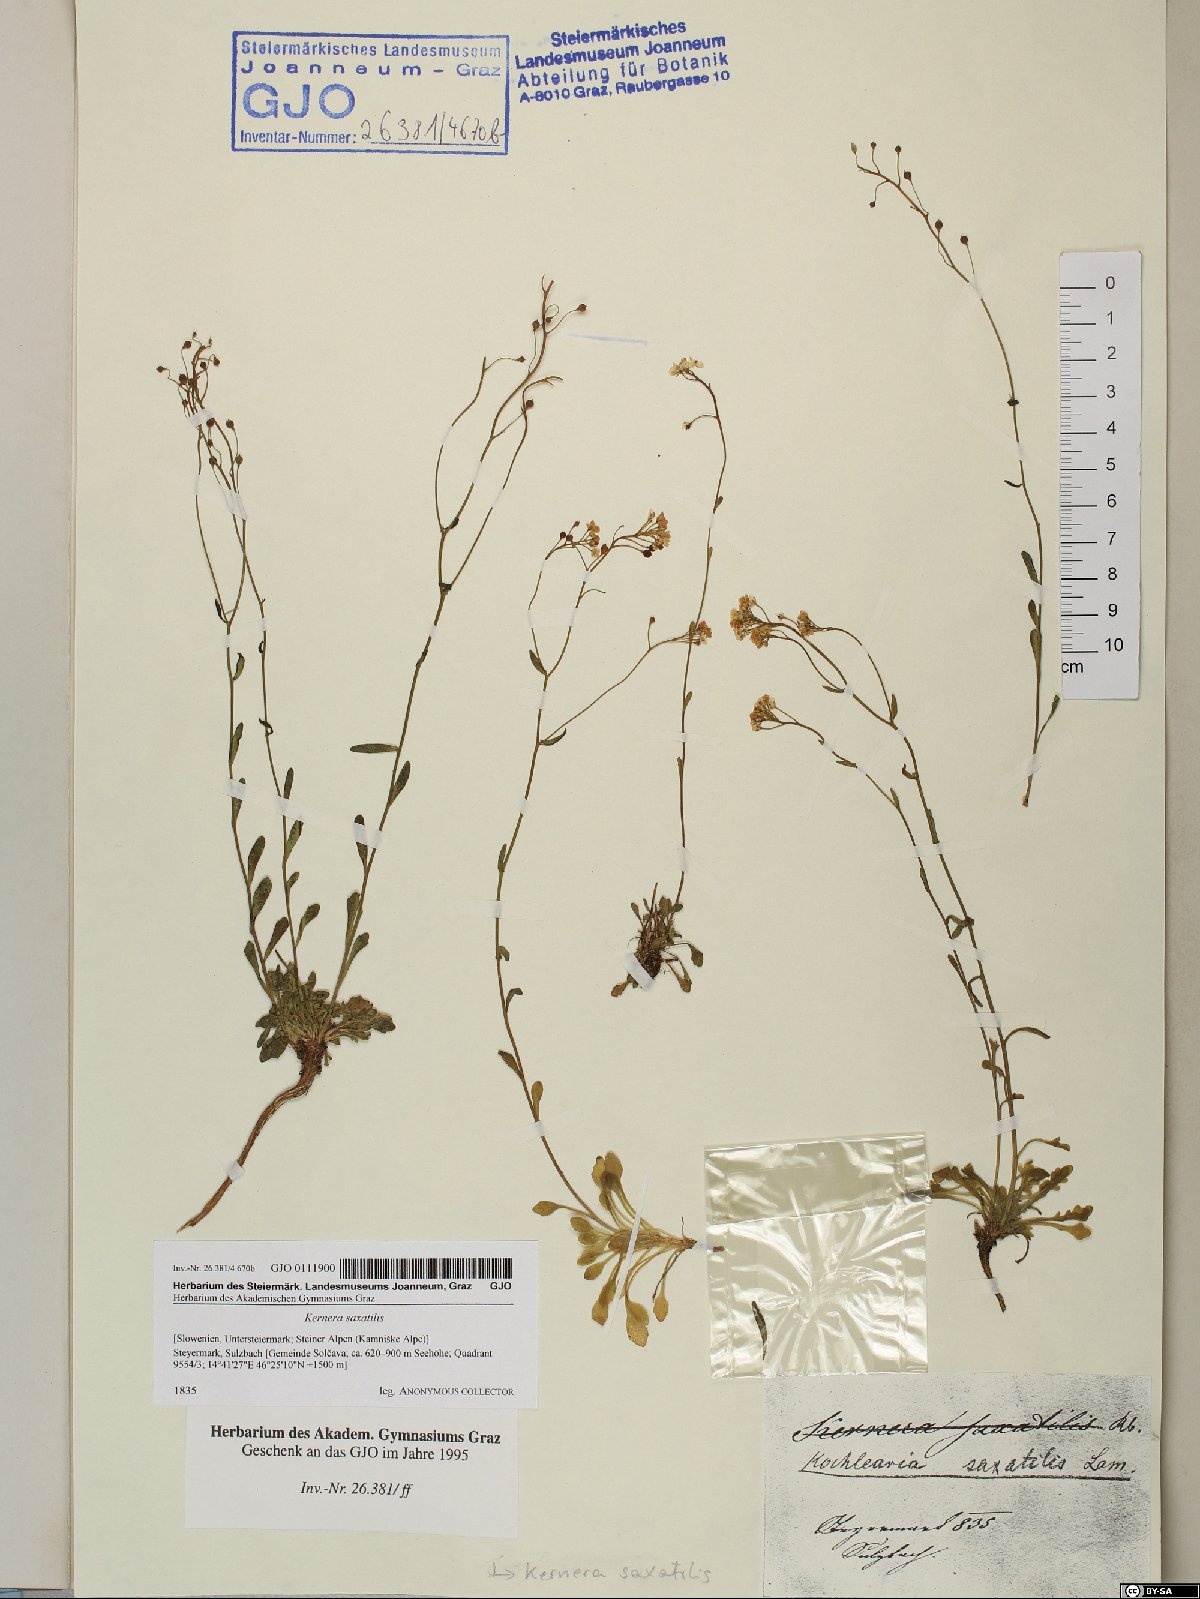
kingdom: Plantae
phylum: Tracheophyta
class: Magnoliopsida
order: Brassicales
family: Brassicaceae
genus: Kernera
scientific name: Kernera saxatilis
